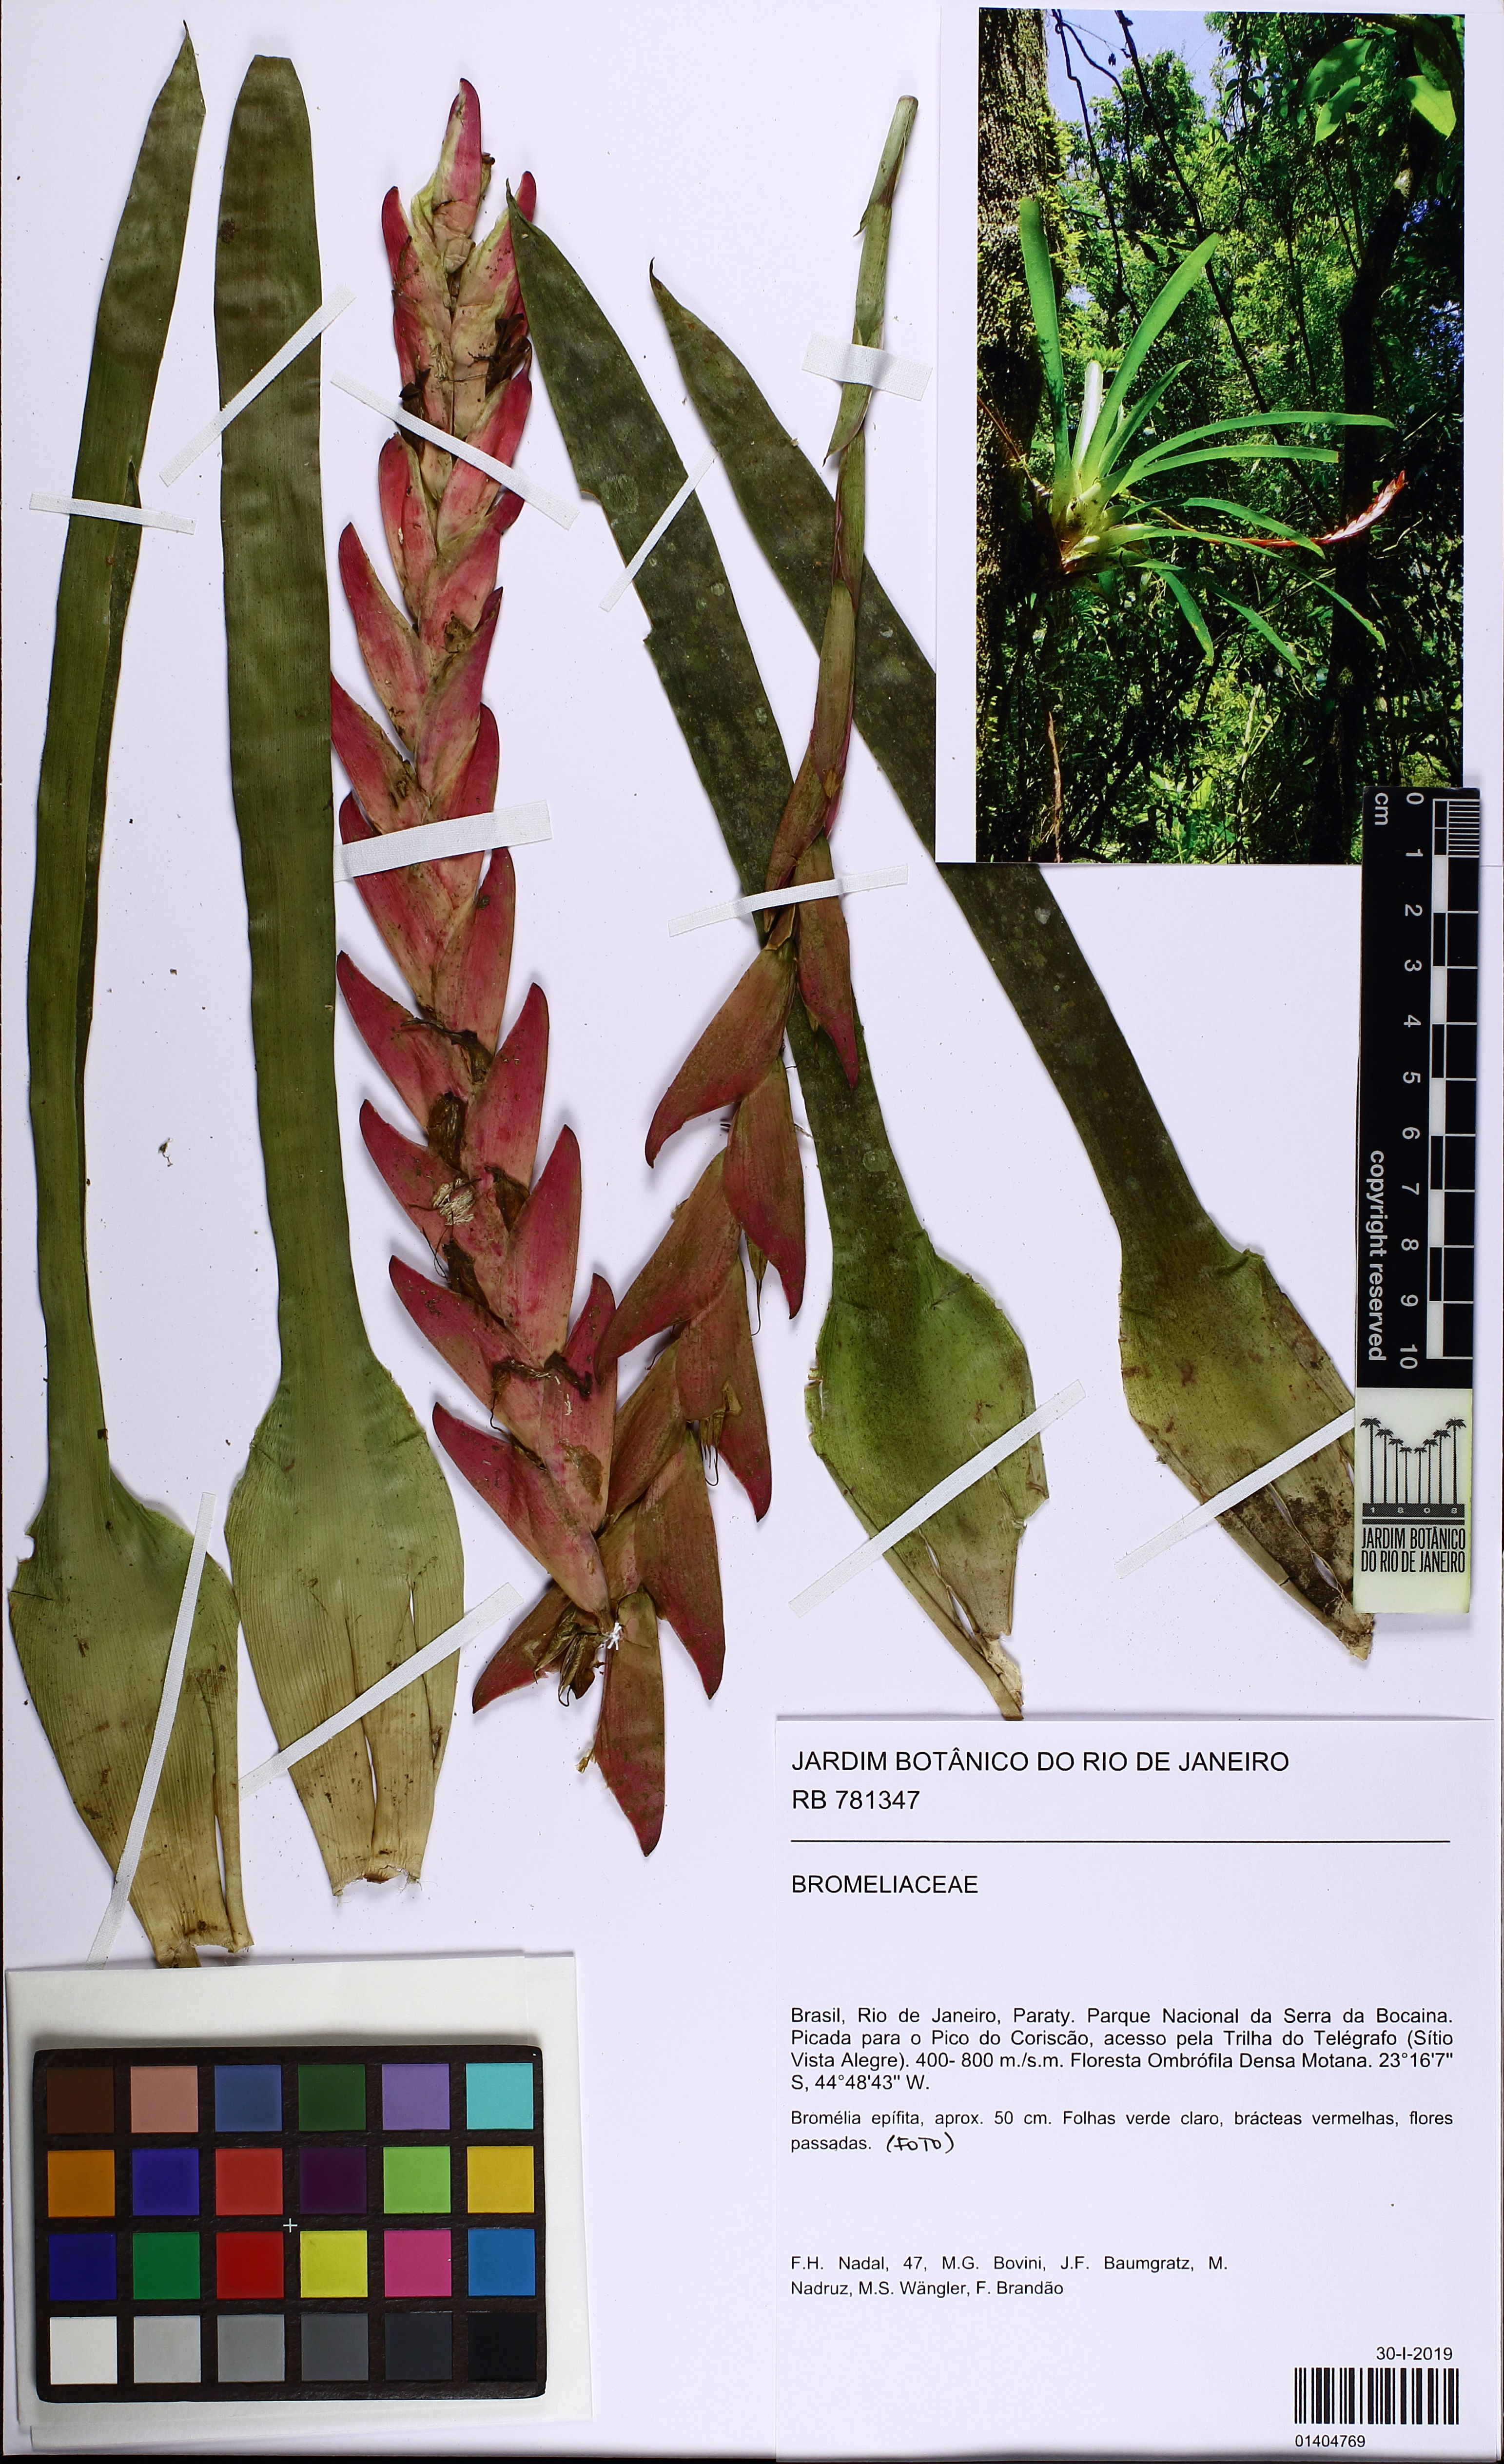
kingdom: Plantae
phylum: Tracheophyta
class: Liliopsida
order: Poales
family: Bromeliaceae
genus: Vriesea
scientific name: Vriesea
